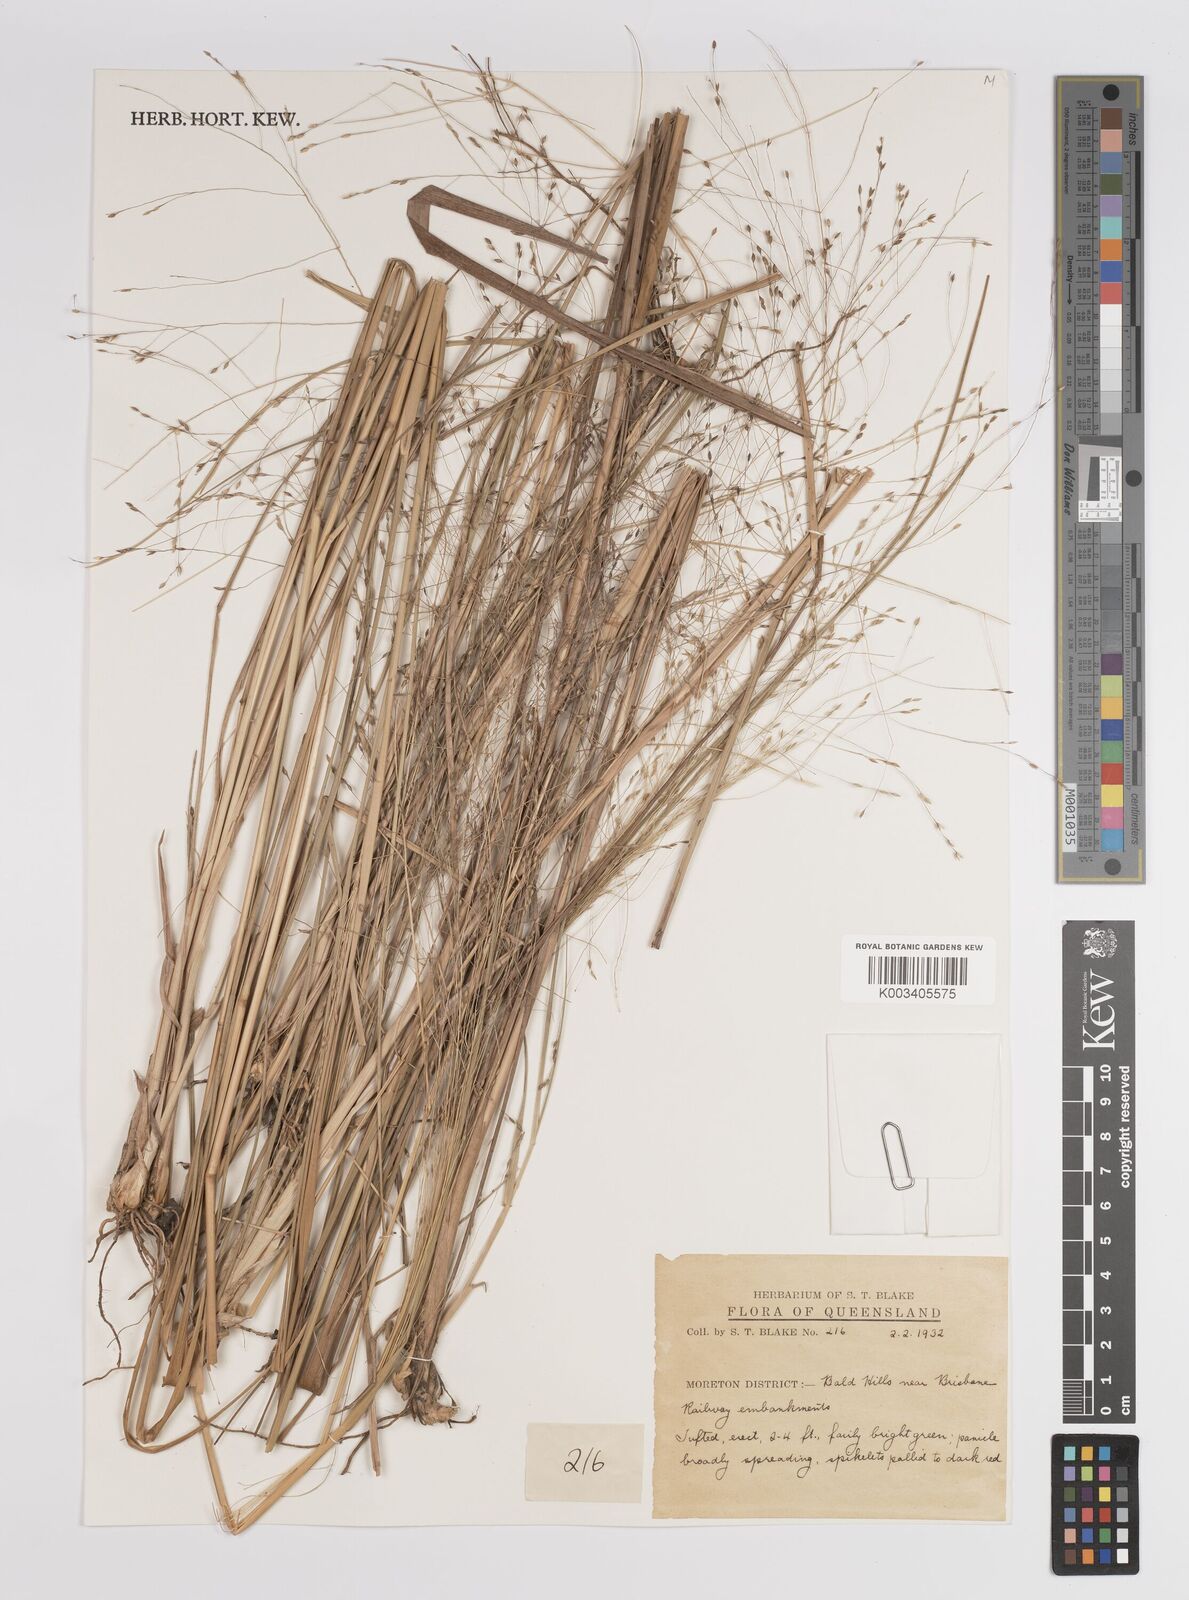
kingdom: Plantae
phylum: Tracheophyta
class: Liliopsida
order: Poales
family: Poaceae
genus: Panicum
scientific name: Panicum
